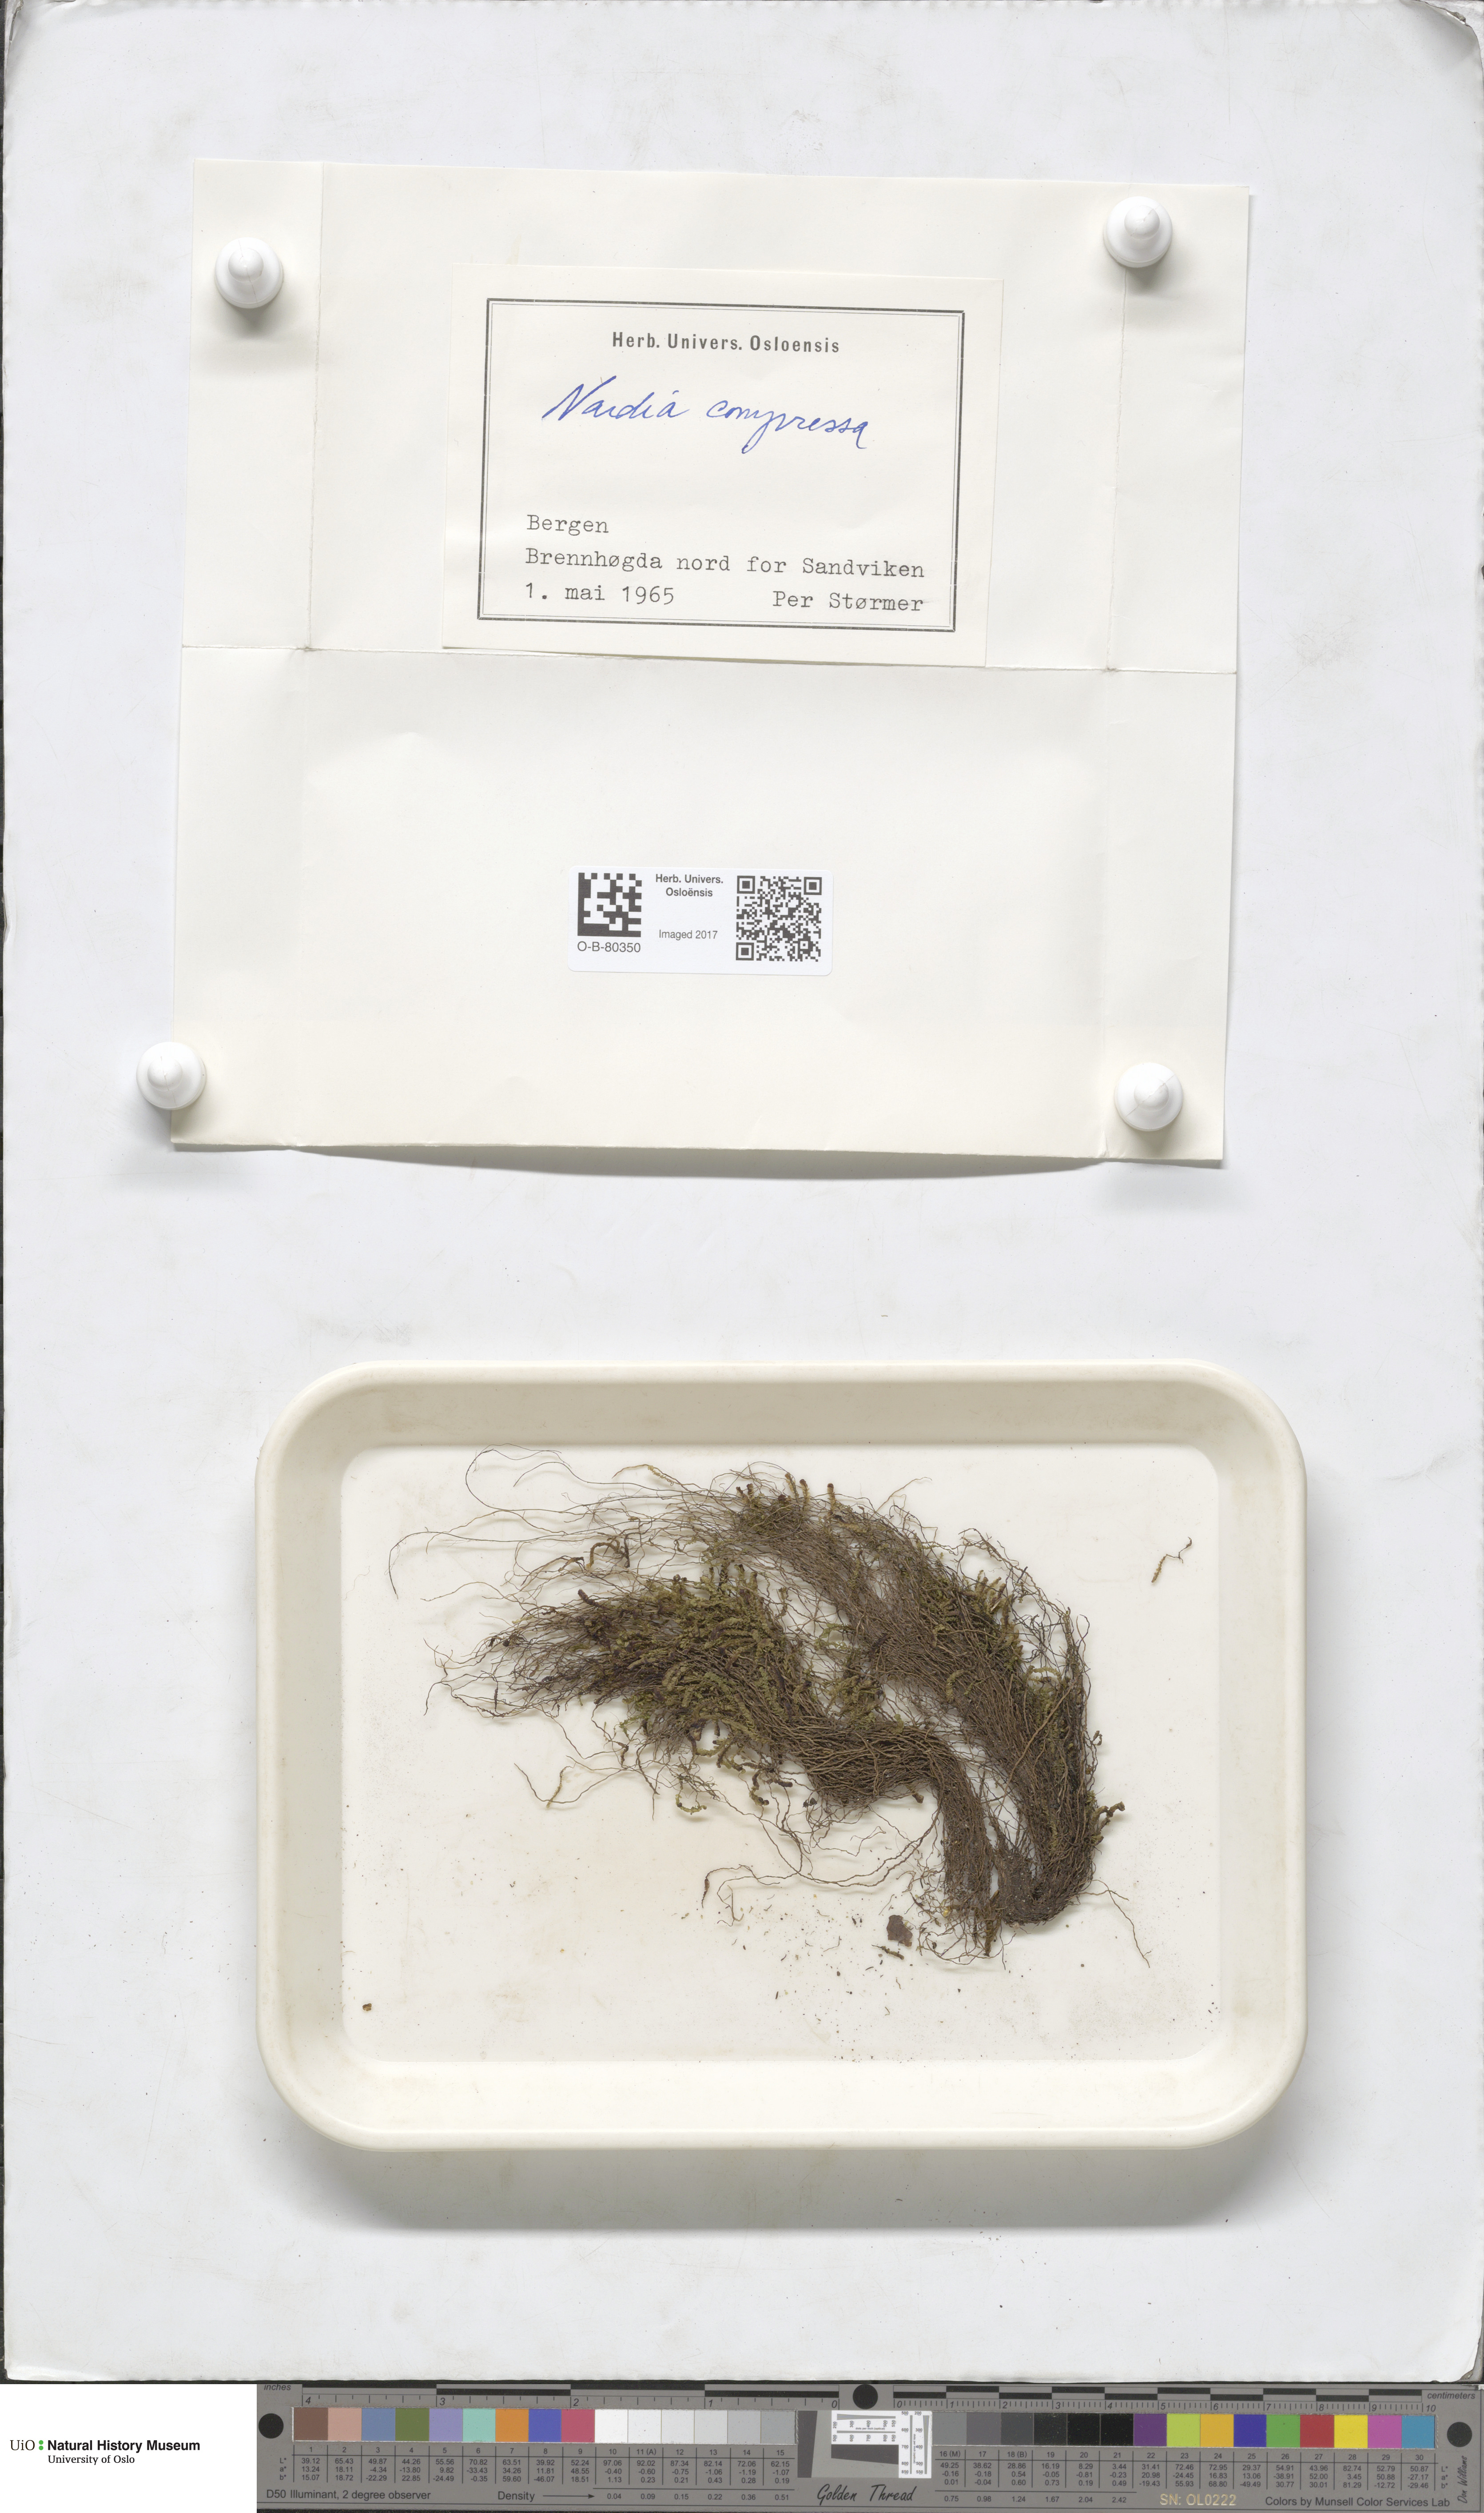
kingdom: Plantae
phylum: Marchantiophyta
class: Jungermanniopsida
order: Jungermanniales
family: Gymnomitriaceae
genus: Nardia
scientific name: Nardia compressa
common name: Compressed flapwort
